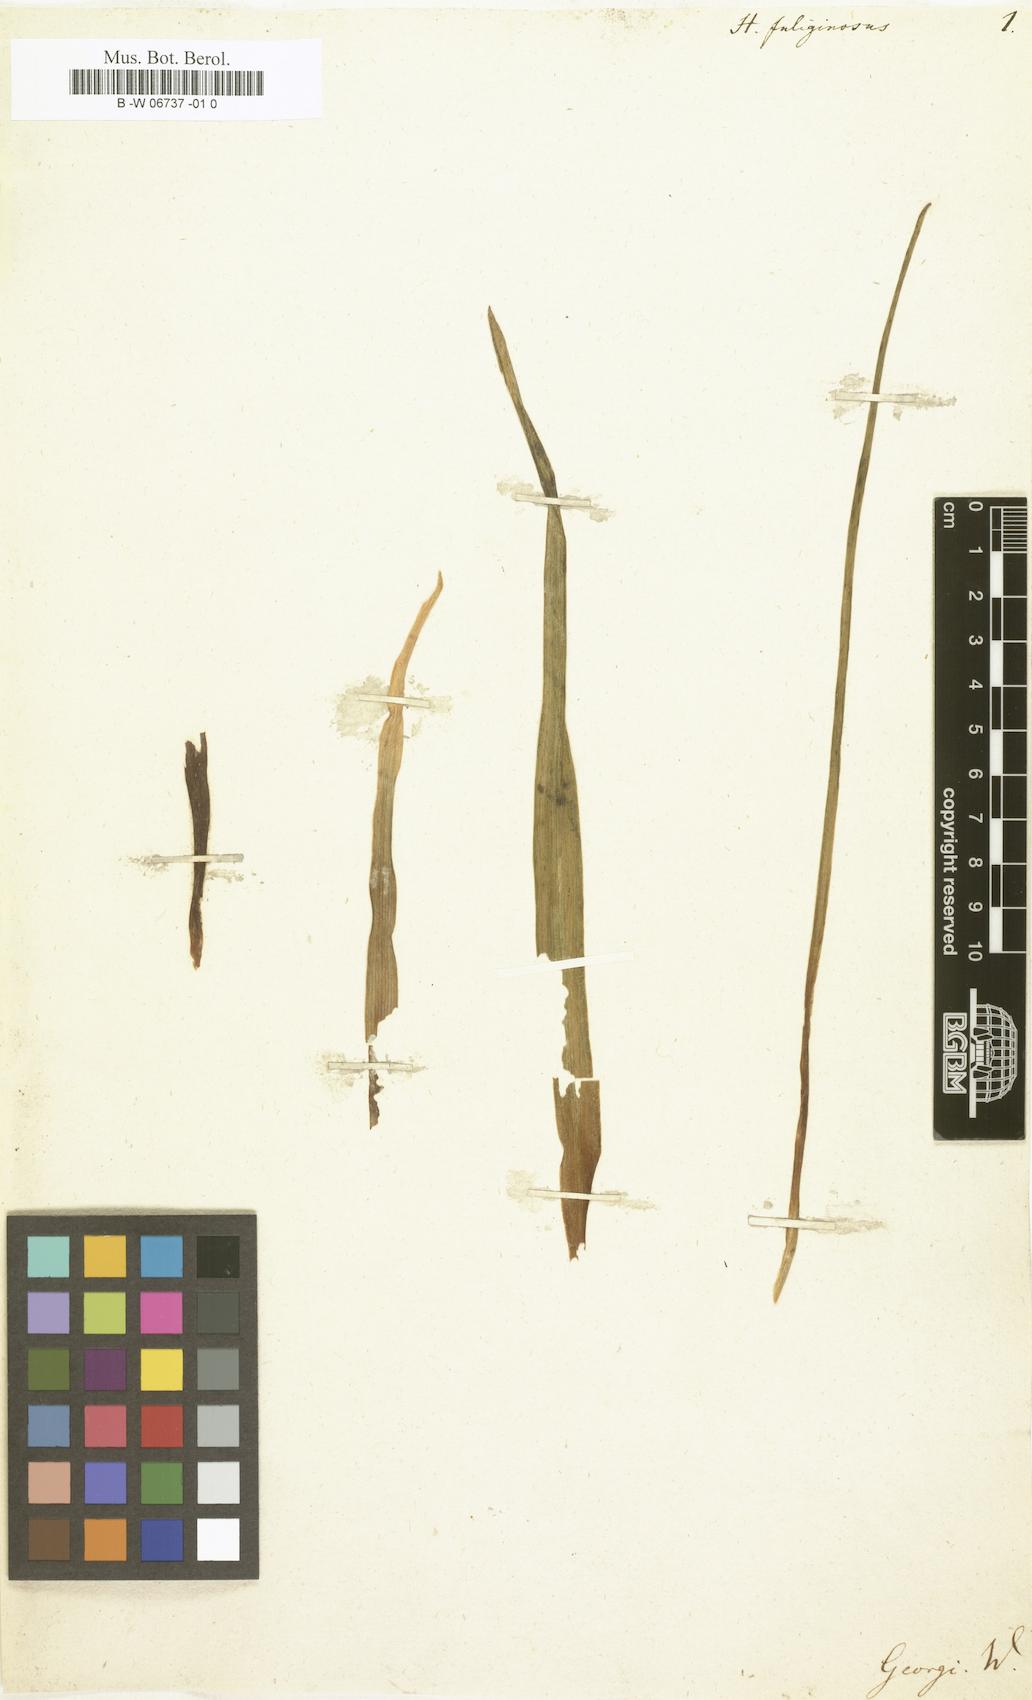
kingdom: Plantae
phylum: Tracheophyta
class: Liliopsida
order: Asparagales
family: Asparagaceae
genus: Muscari
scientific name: Muscari comosum
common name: Tassel hyacinth
